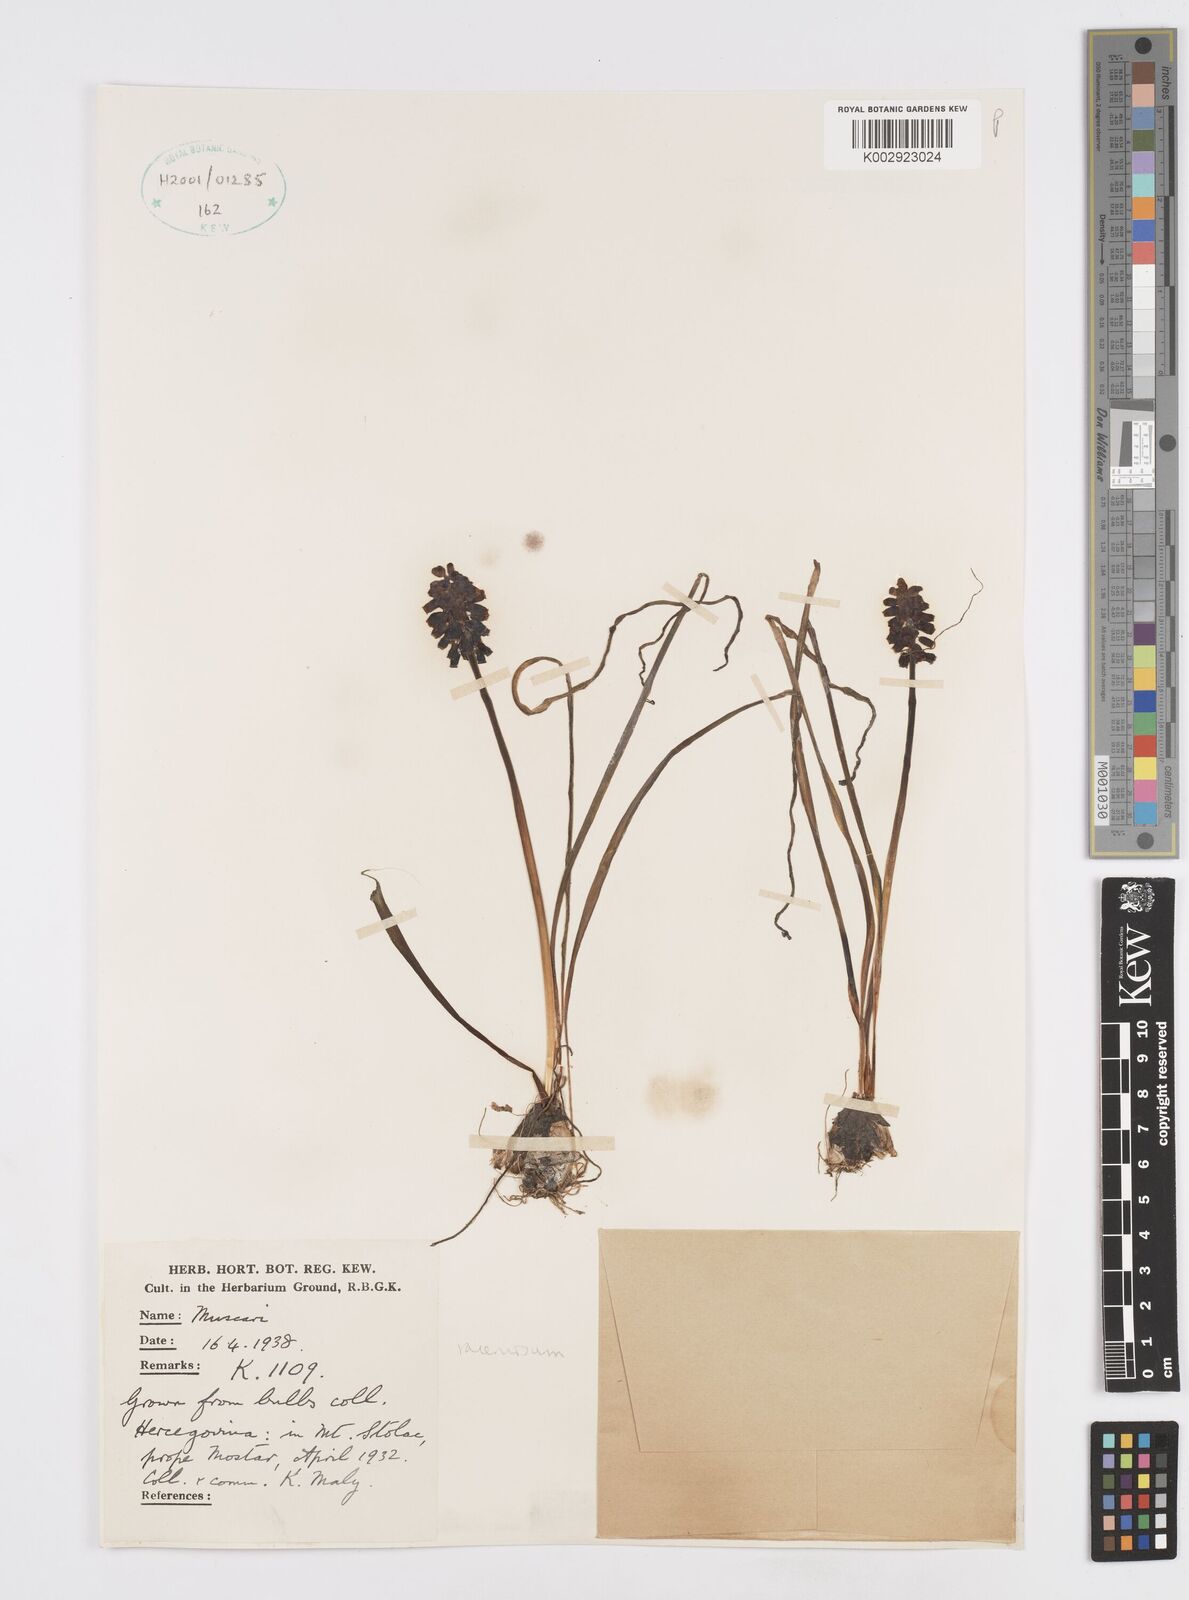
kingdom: Plantae
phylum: Tracheophyta
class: Liliopsida
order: Asparagales
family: Asparagaceae
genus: Muscarimia
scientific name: Muscarimia muscari
